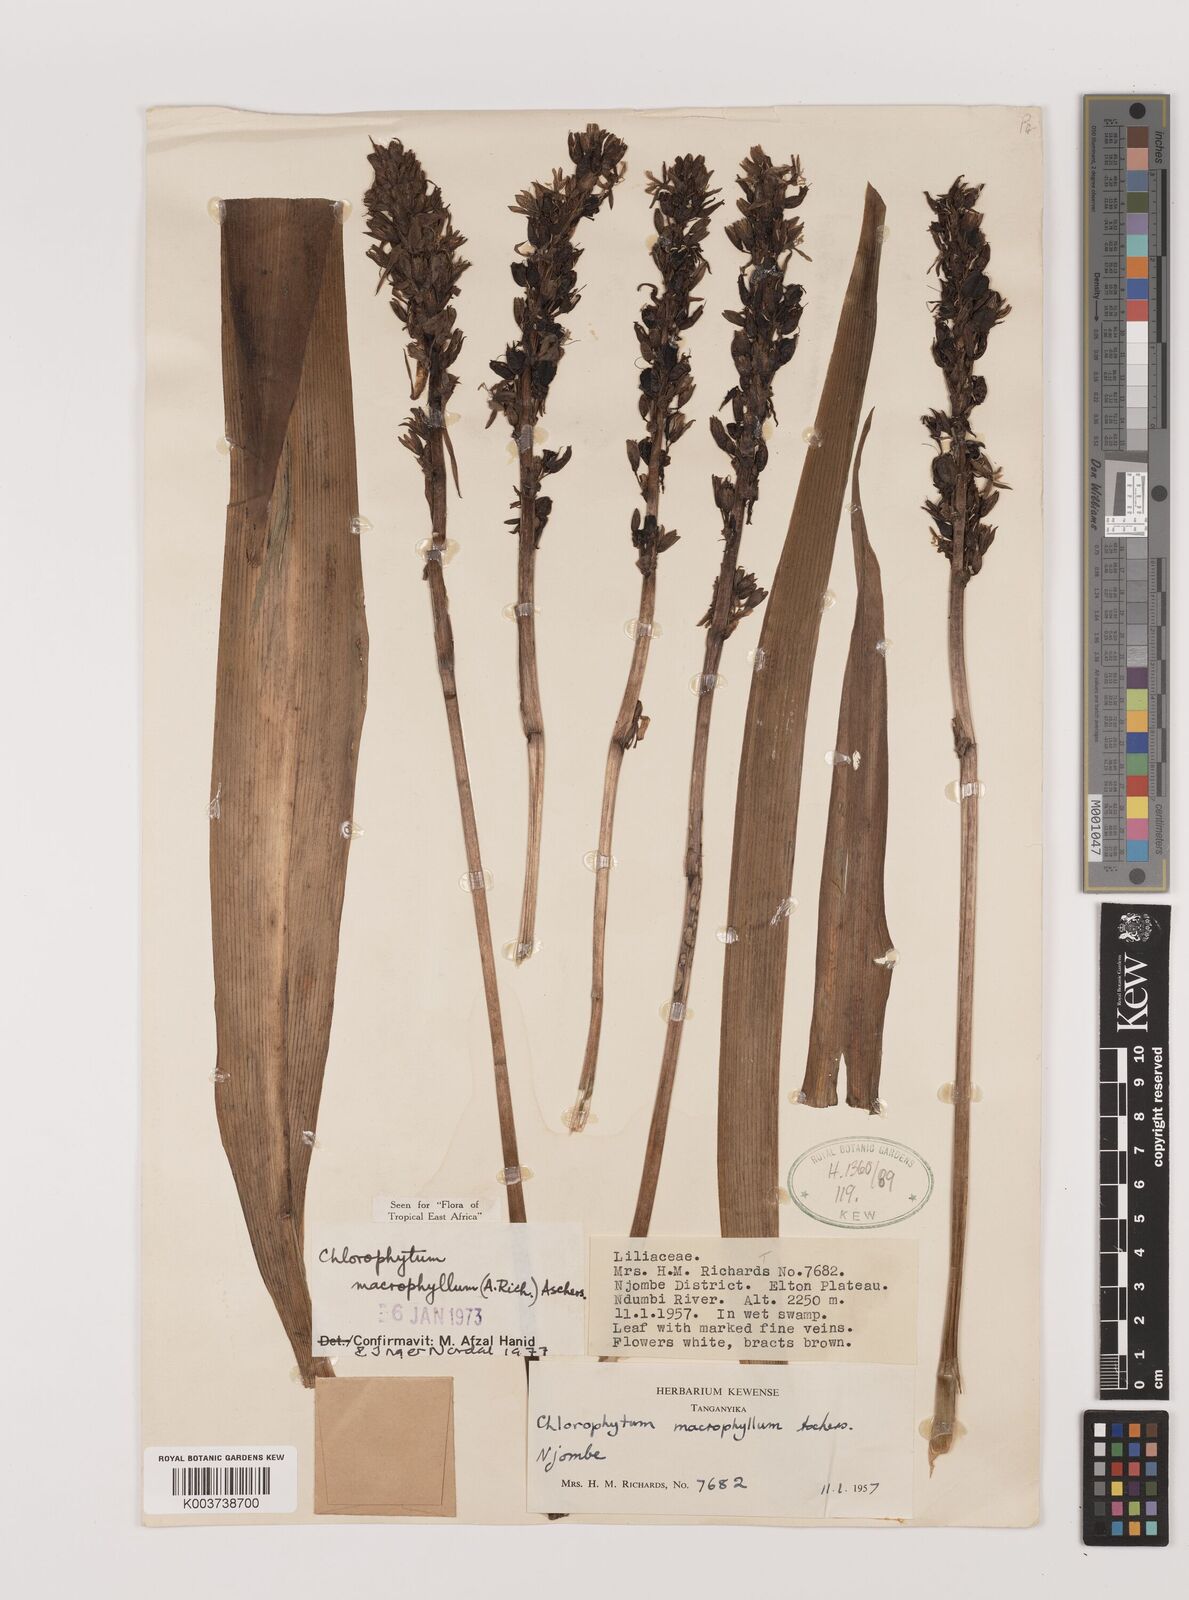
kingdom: Plantae
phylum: Tracheophyta
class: Liliopsida
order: Asparagales
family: Asparagaceae
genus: Chlorophytum
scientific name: Chlorophytum macrophyllum
